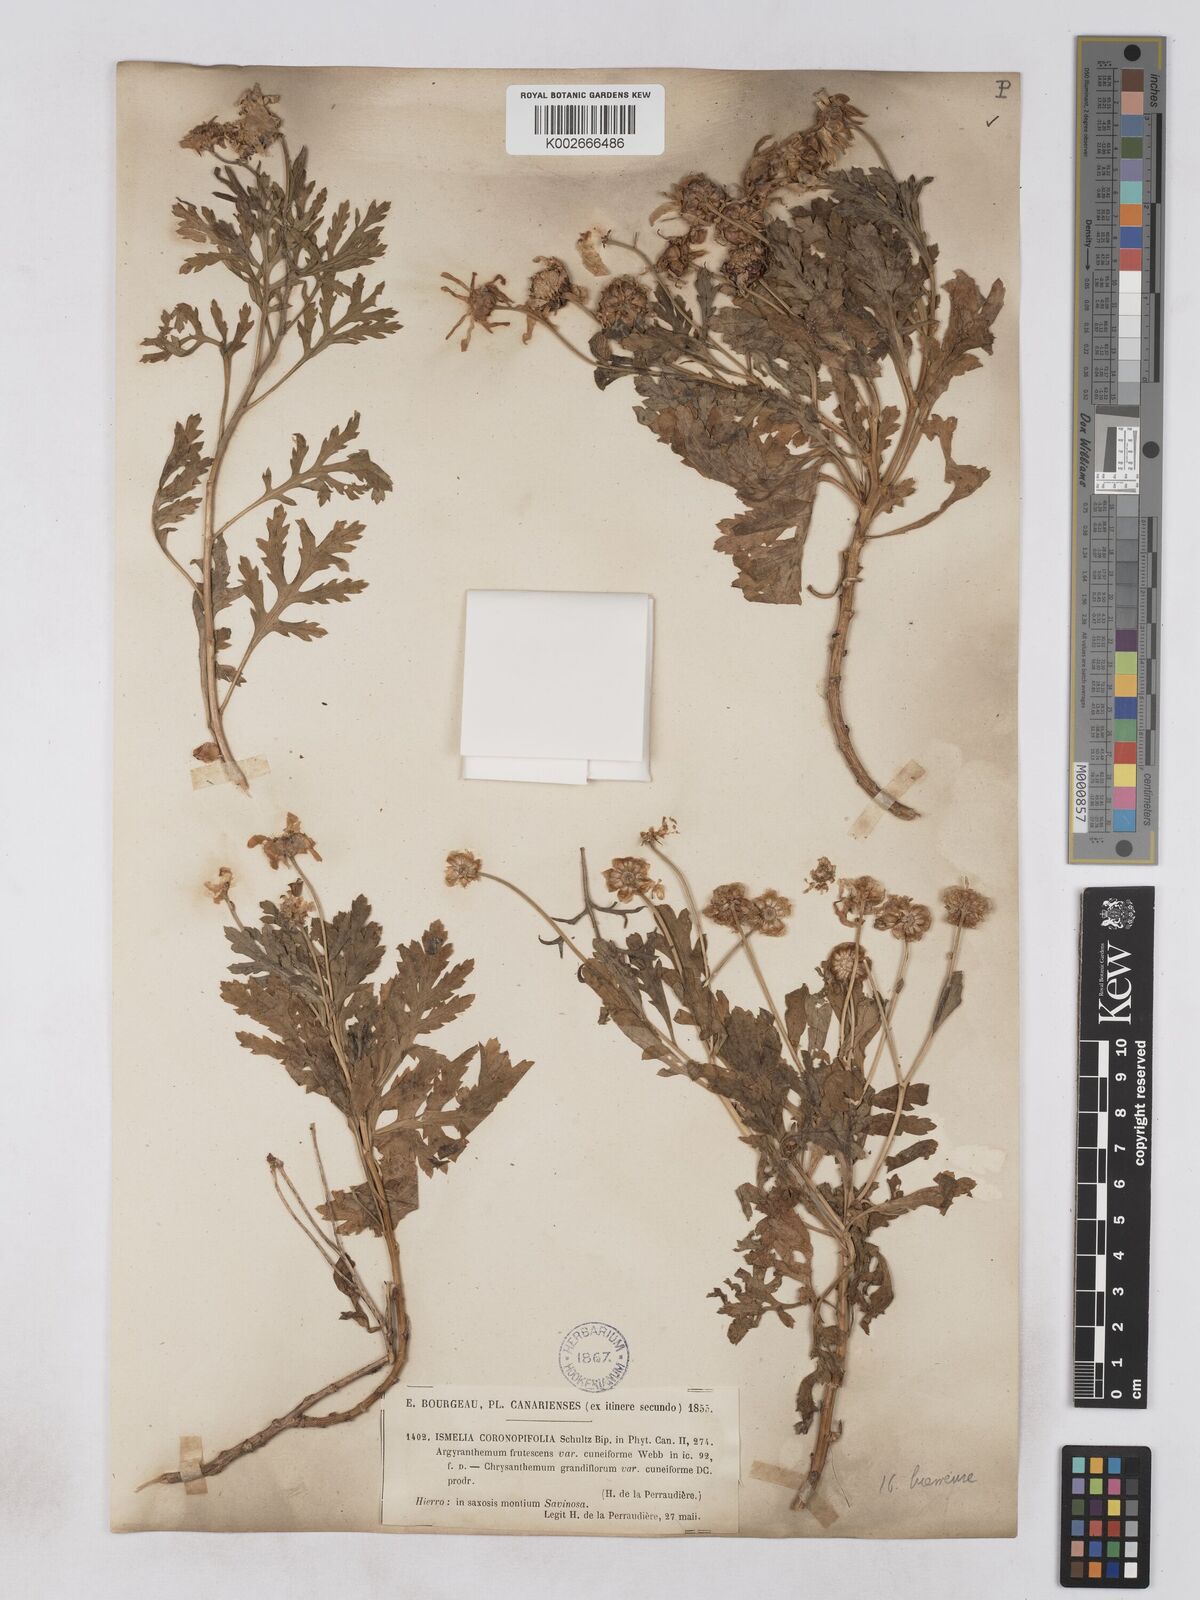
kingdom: Plantae
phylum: Tracheophyta
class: Magnoliopsida
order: Asterales
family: Asteraceae
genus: Argyranthemum
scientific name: Argyranthemum hierrense
